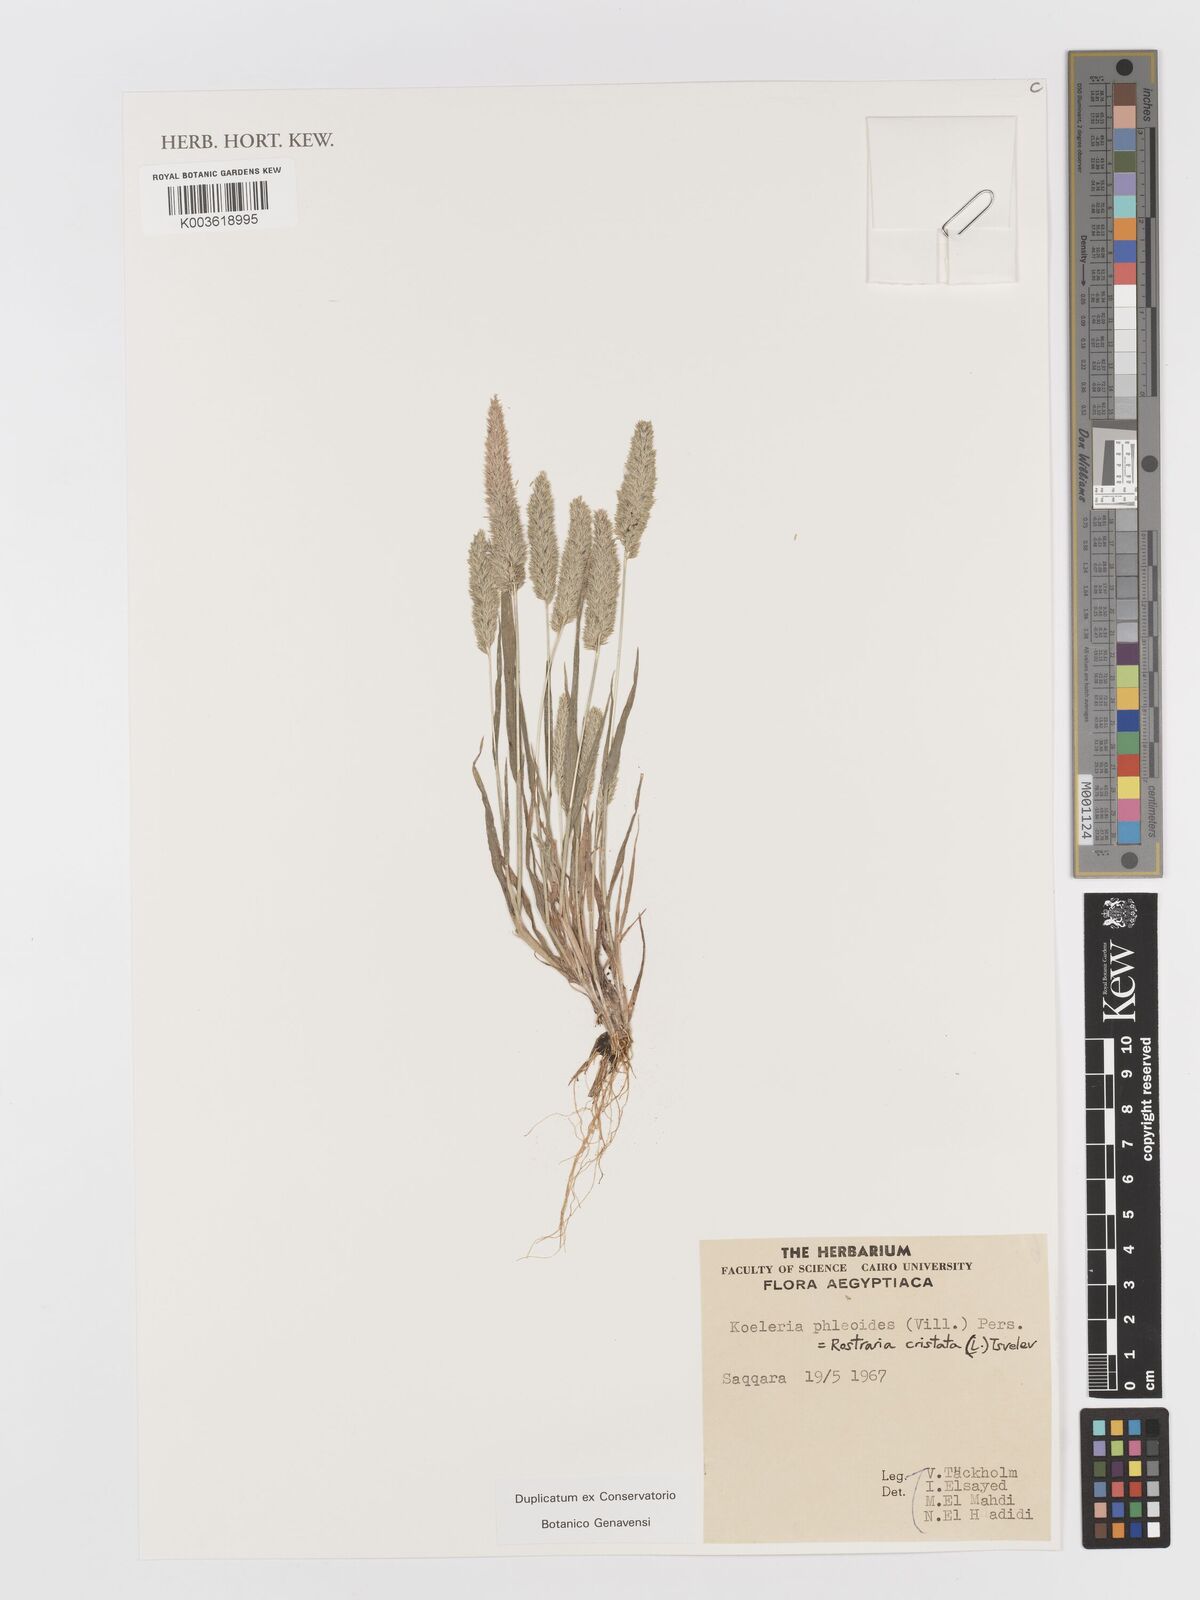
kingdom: Plantae
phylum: Tracheophyta
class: Liliopsida
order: Poales
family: Poaceae
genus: Rostraria
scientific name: Rostraria cristata
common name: Mediterranean hair-grass
